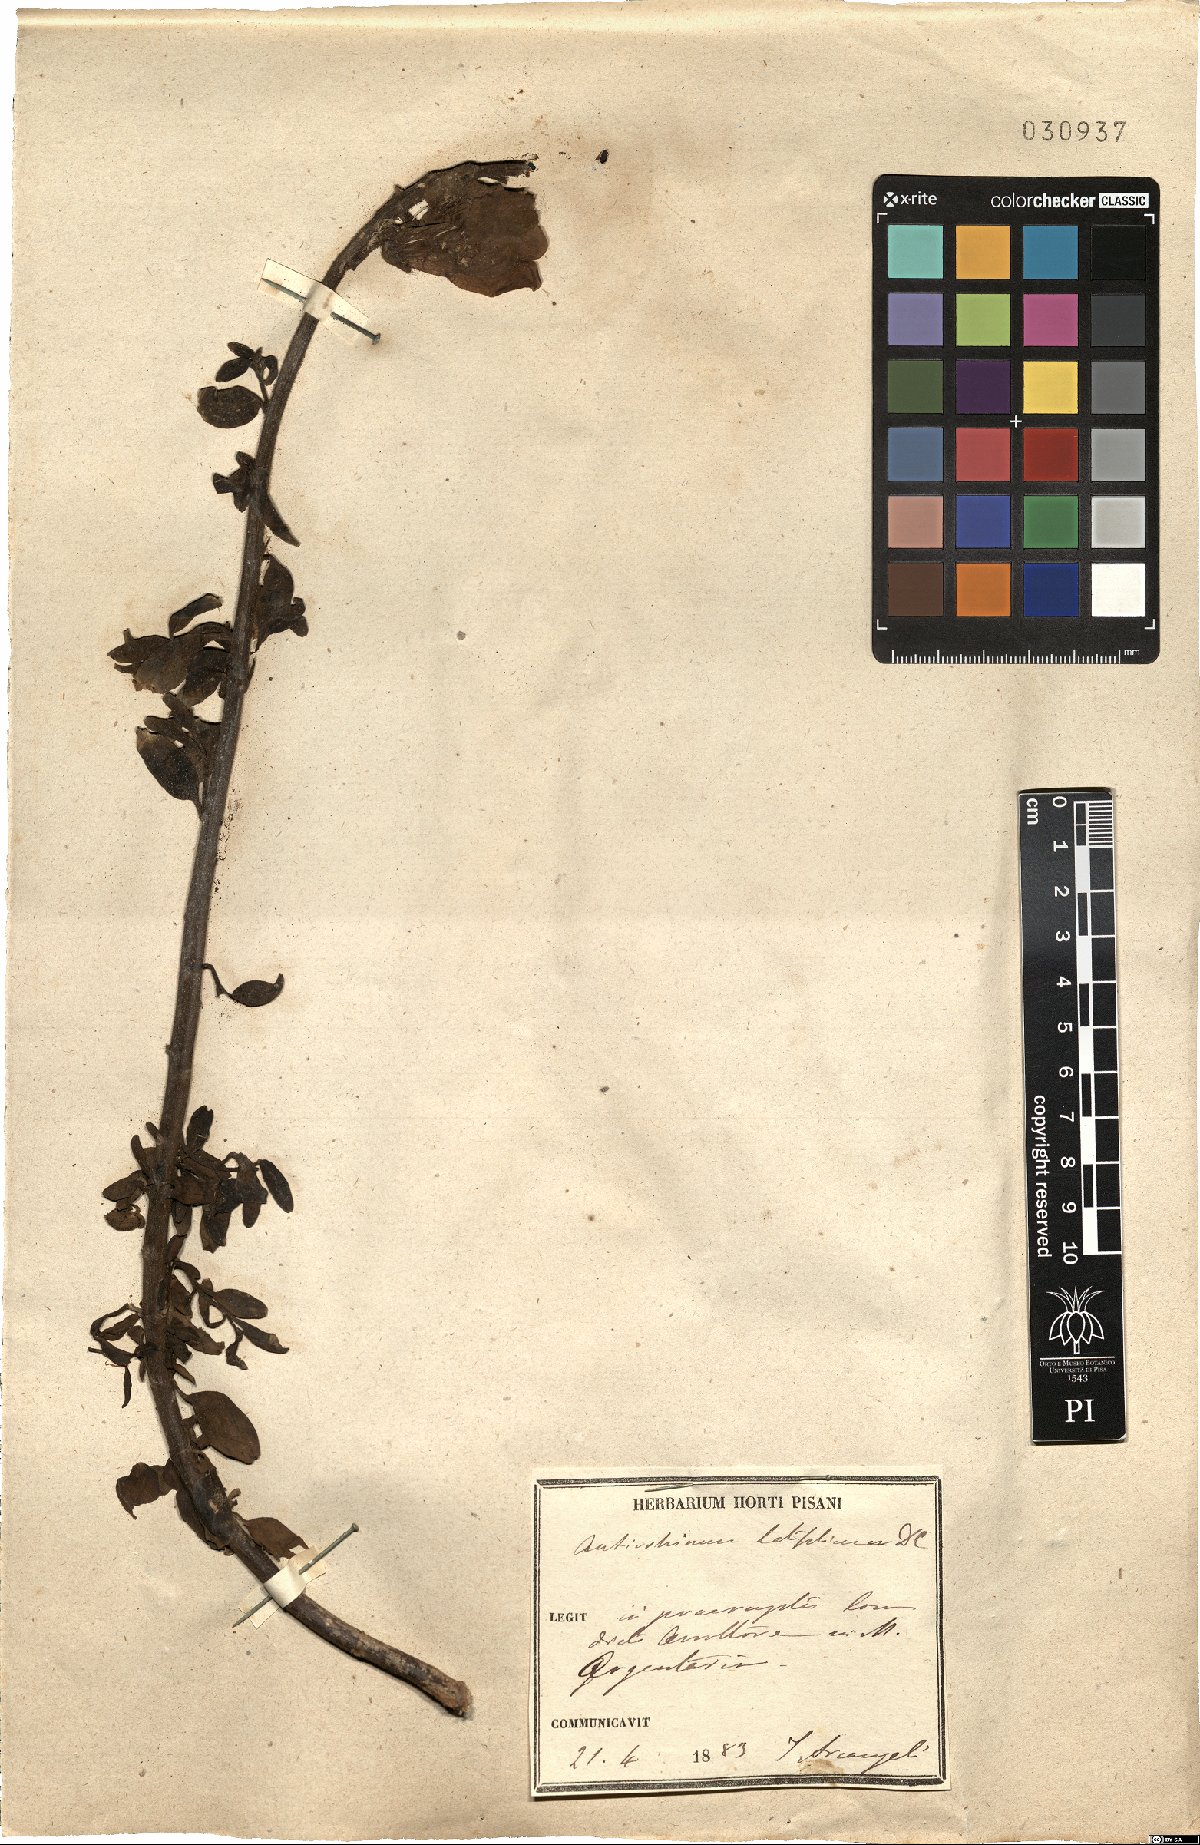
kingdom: Plantae
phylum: Tracheophyta
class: Magnoliopsida
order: Lamiales
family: Plantaginaceae
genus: Antirrhinum
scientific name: Antirrhinum latifolium
